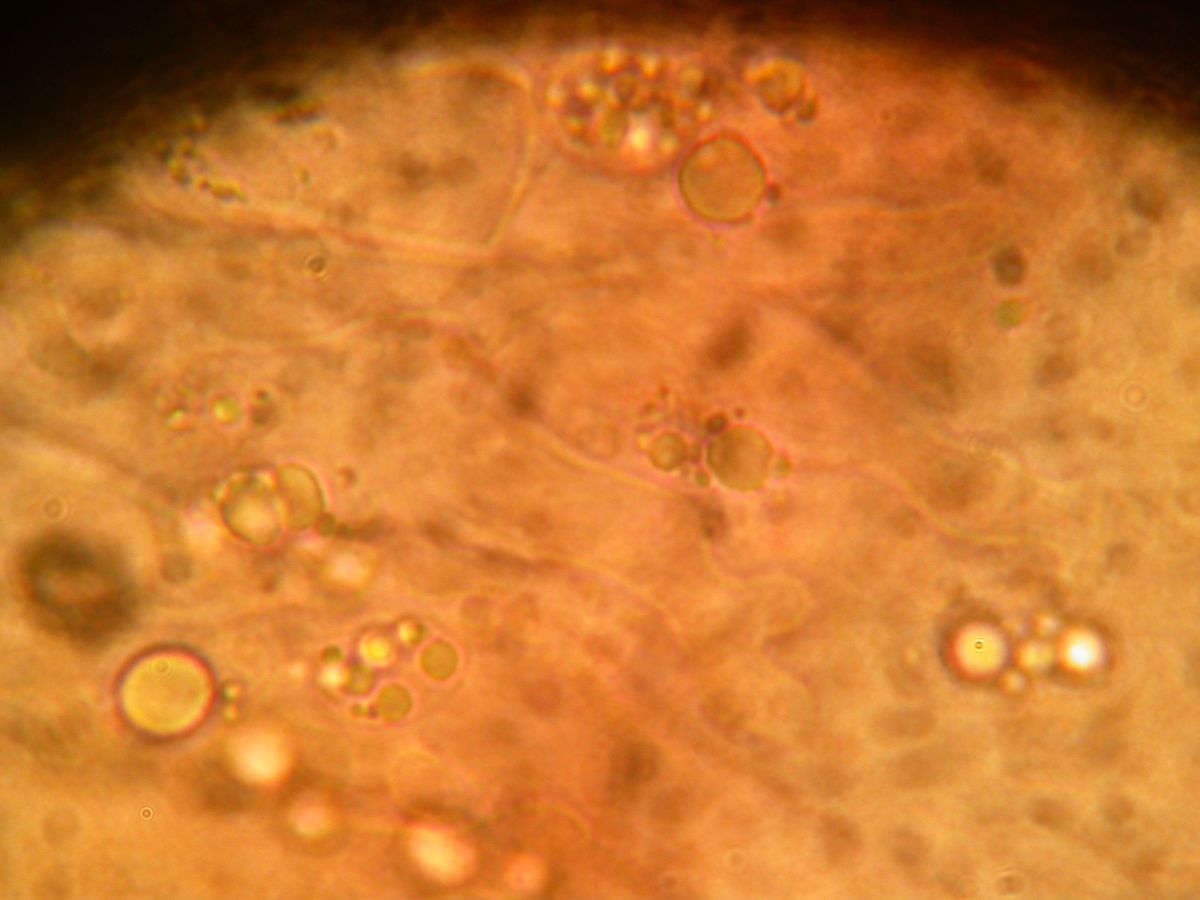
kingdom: Fungi
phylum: Basidiomycota
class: Agaricomycetes
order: Agaricales
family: Mycenaceae
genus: Mycena
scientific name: Mycena galopus
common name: hvidmælket huesvamp
